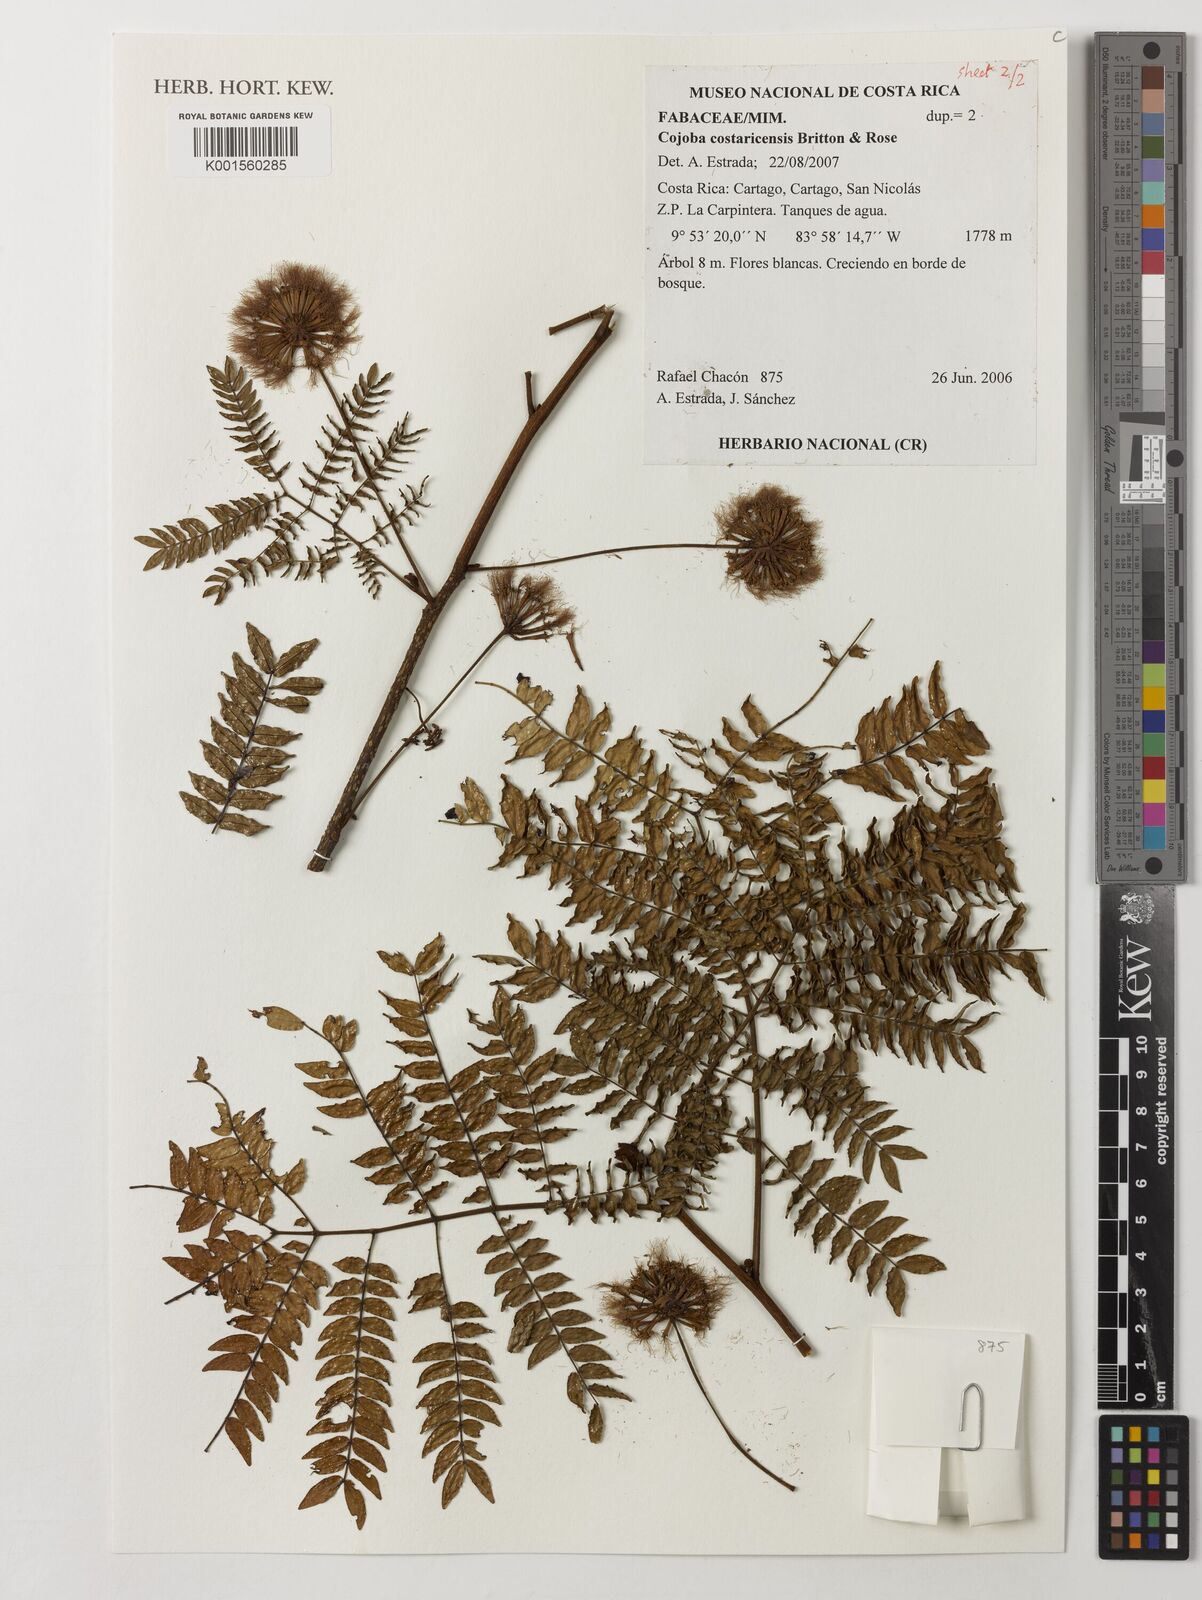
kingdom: Plantae
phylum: Tracheophyta
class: Magnoliopsida
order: Fabales
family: Fabaceae
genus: Cojoba
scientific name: Cojoba costaricensis
